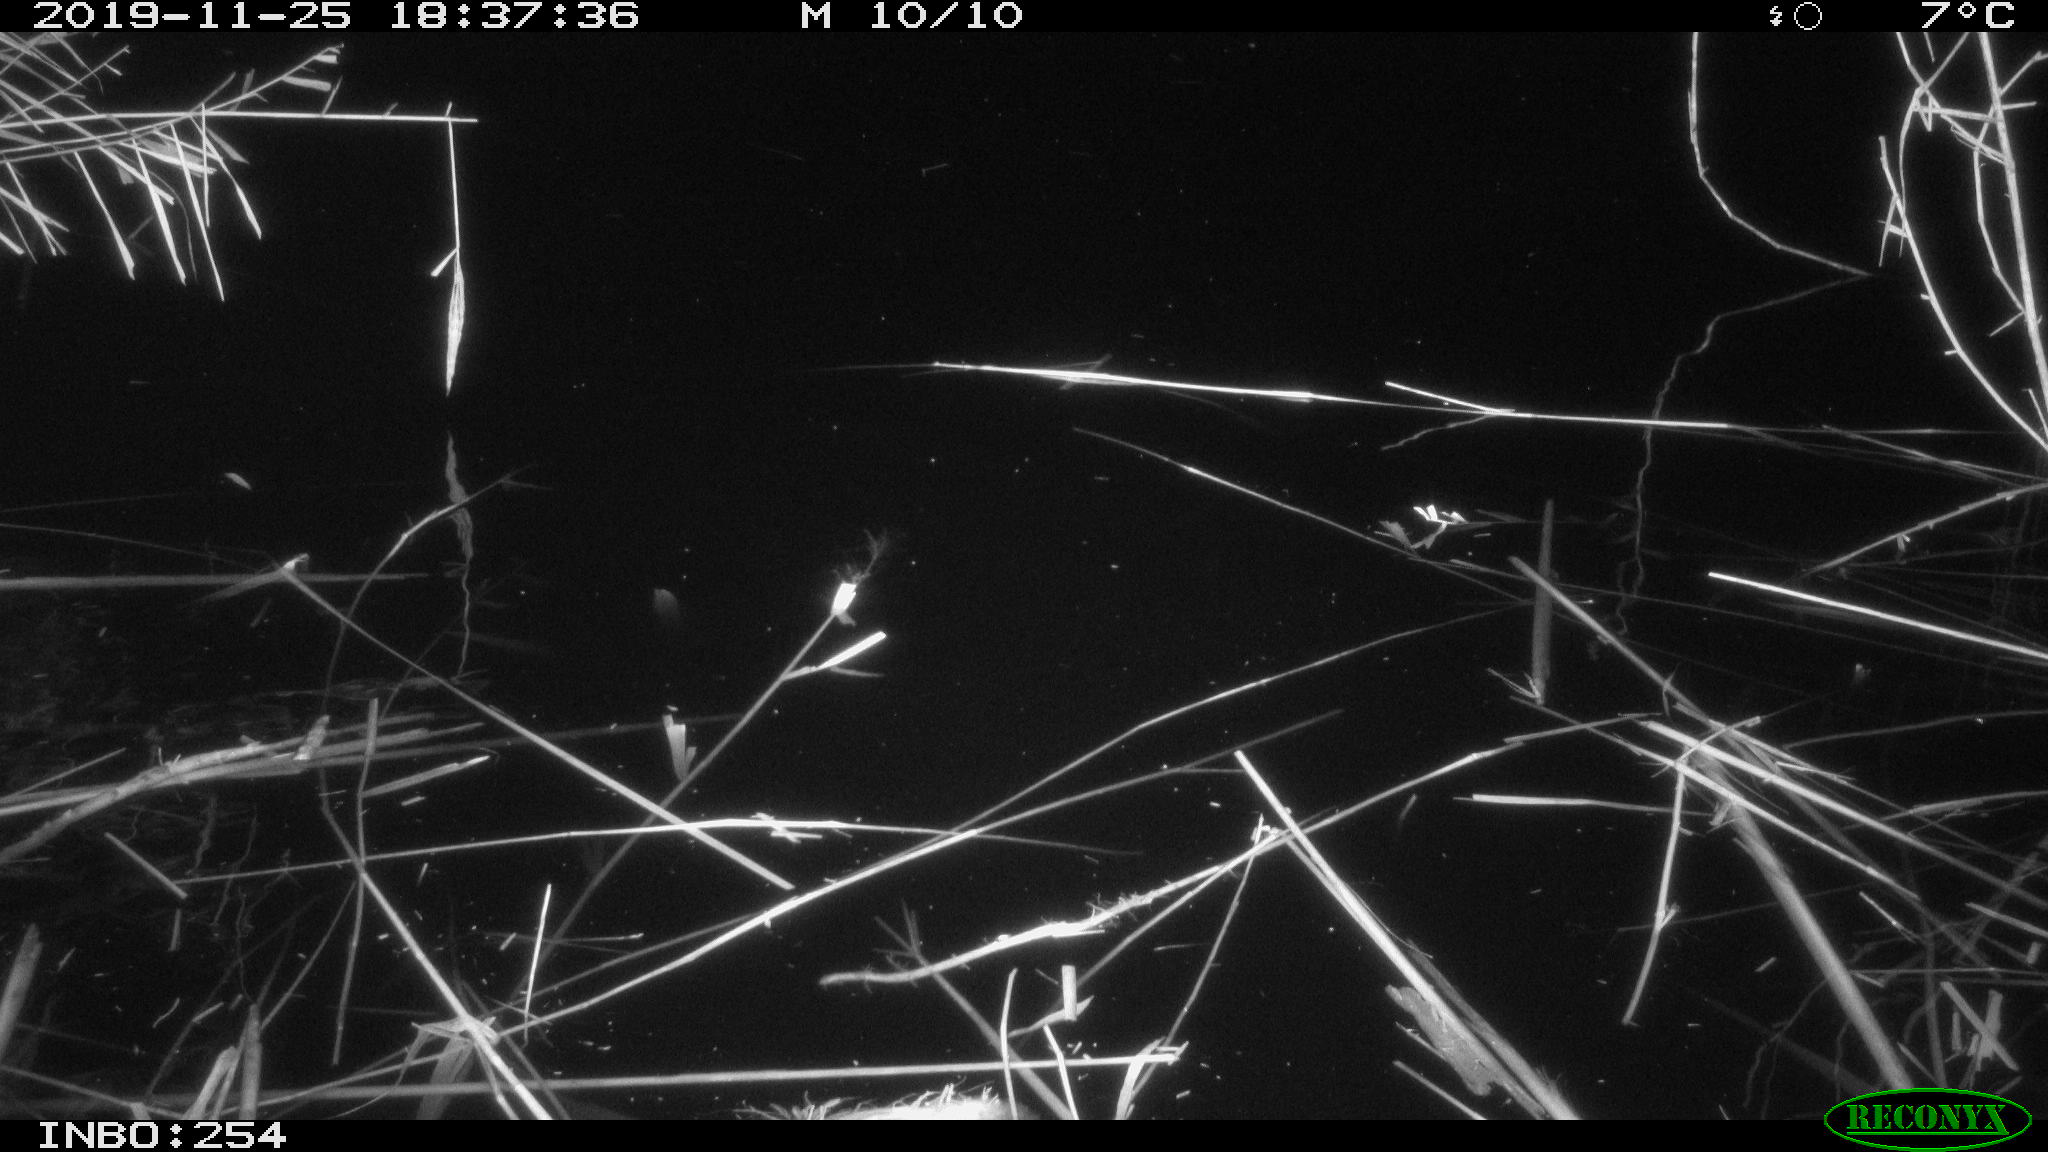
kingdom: Animalia
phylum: Chordata
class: Mammalia
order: Rodentia
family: Muridae
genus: Rattus
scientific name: Rattus norvegicus
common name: Brown rat
